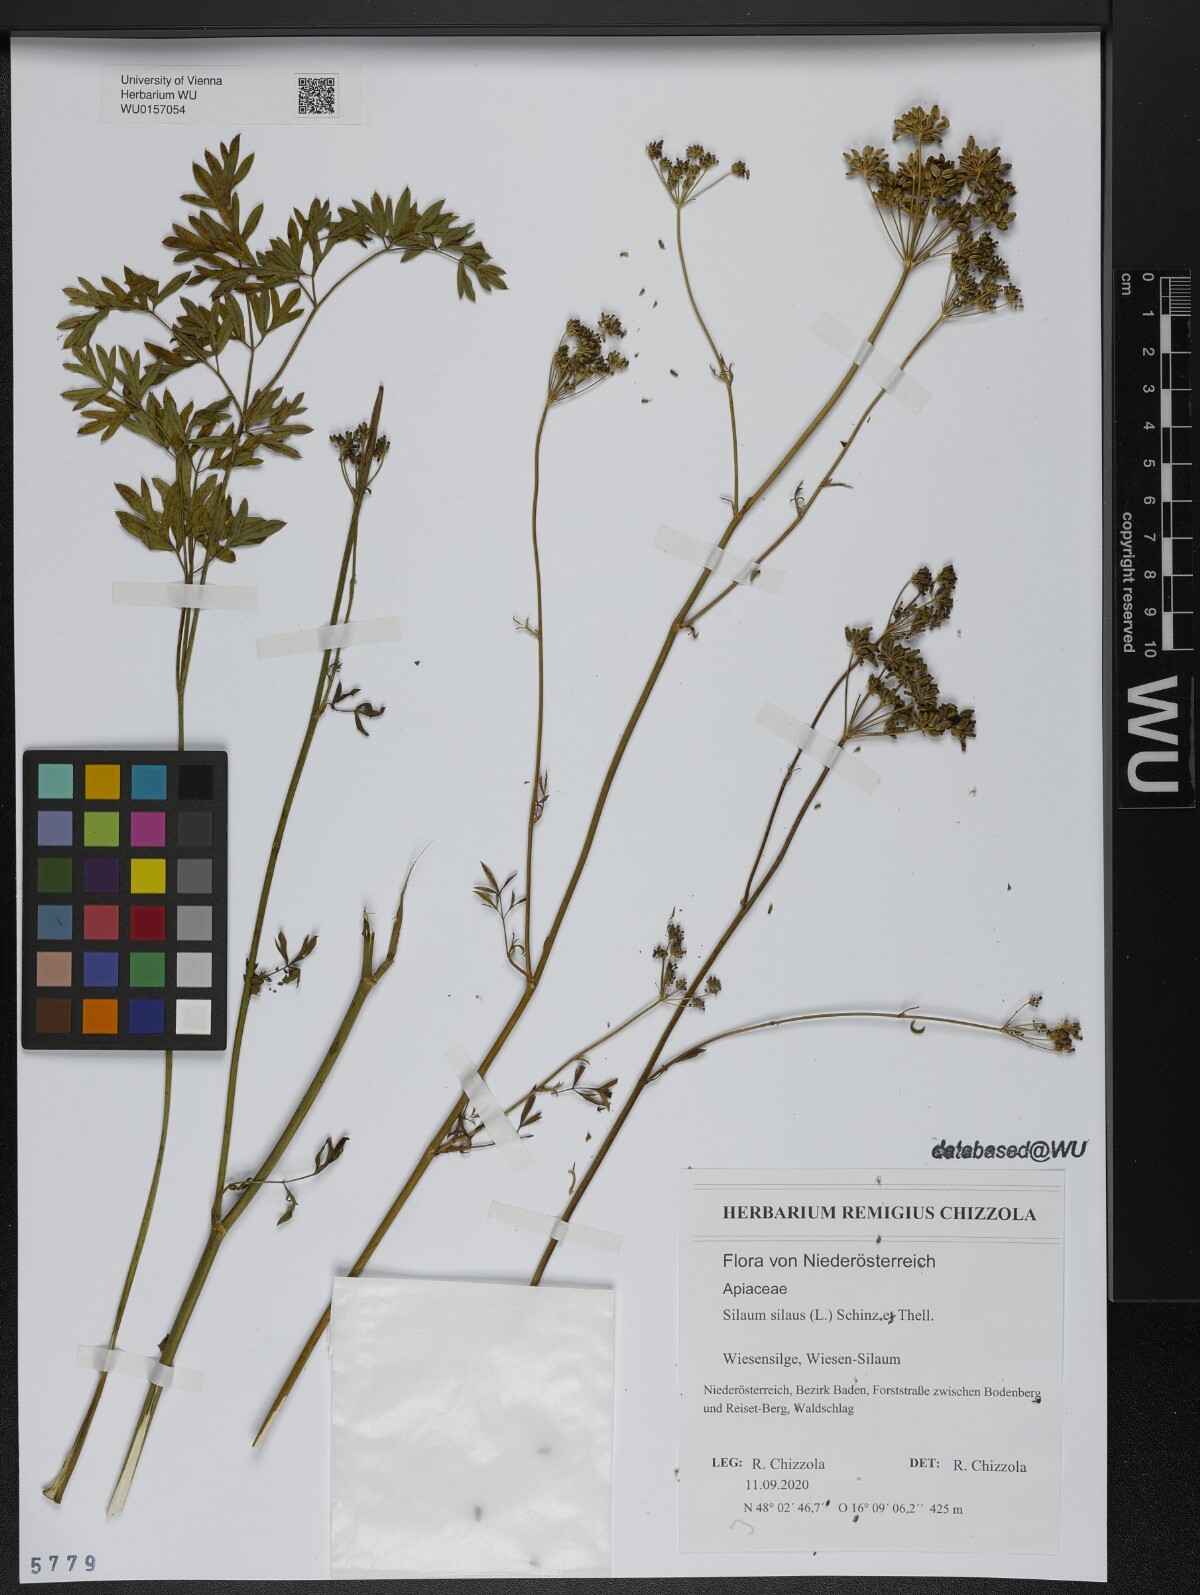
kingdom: Plantae
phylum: Tracheophyta
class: Magnoliopsida
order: Apiales
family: Apiaceae
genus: Silaum
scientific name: Silaum silaus
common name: Pepper-saxifrage
